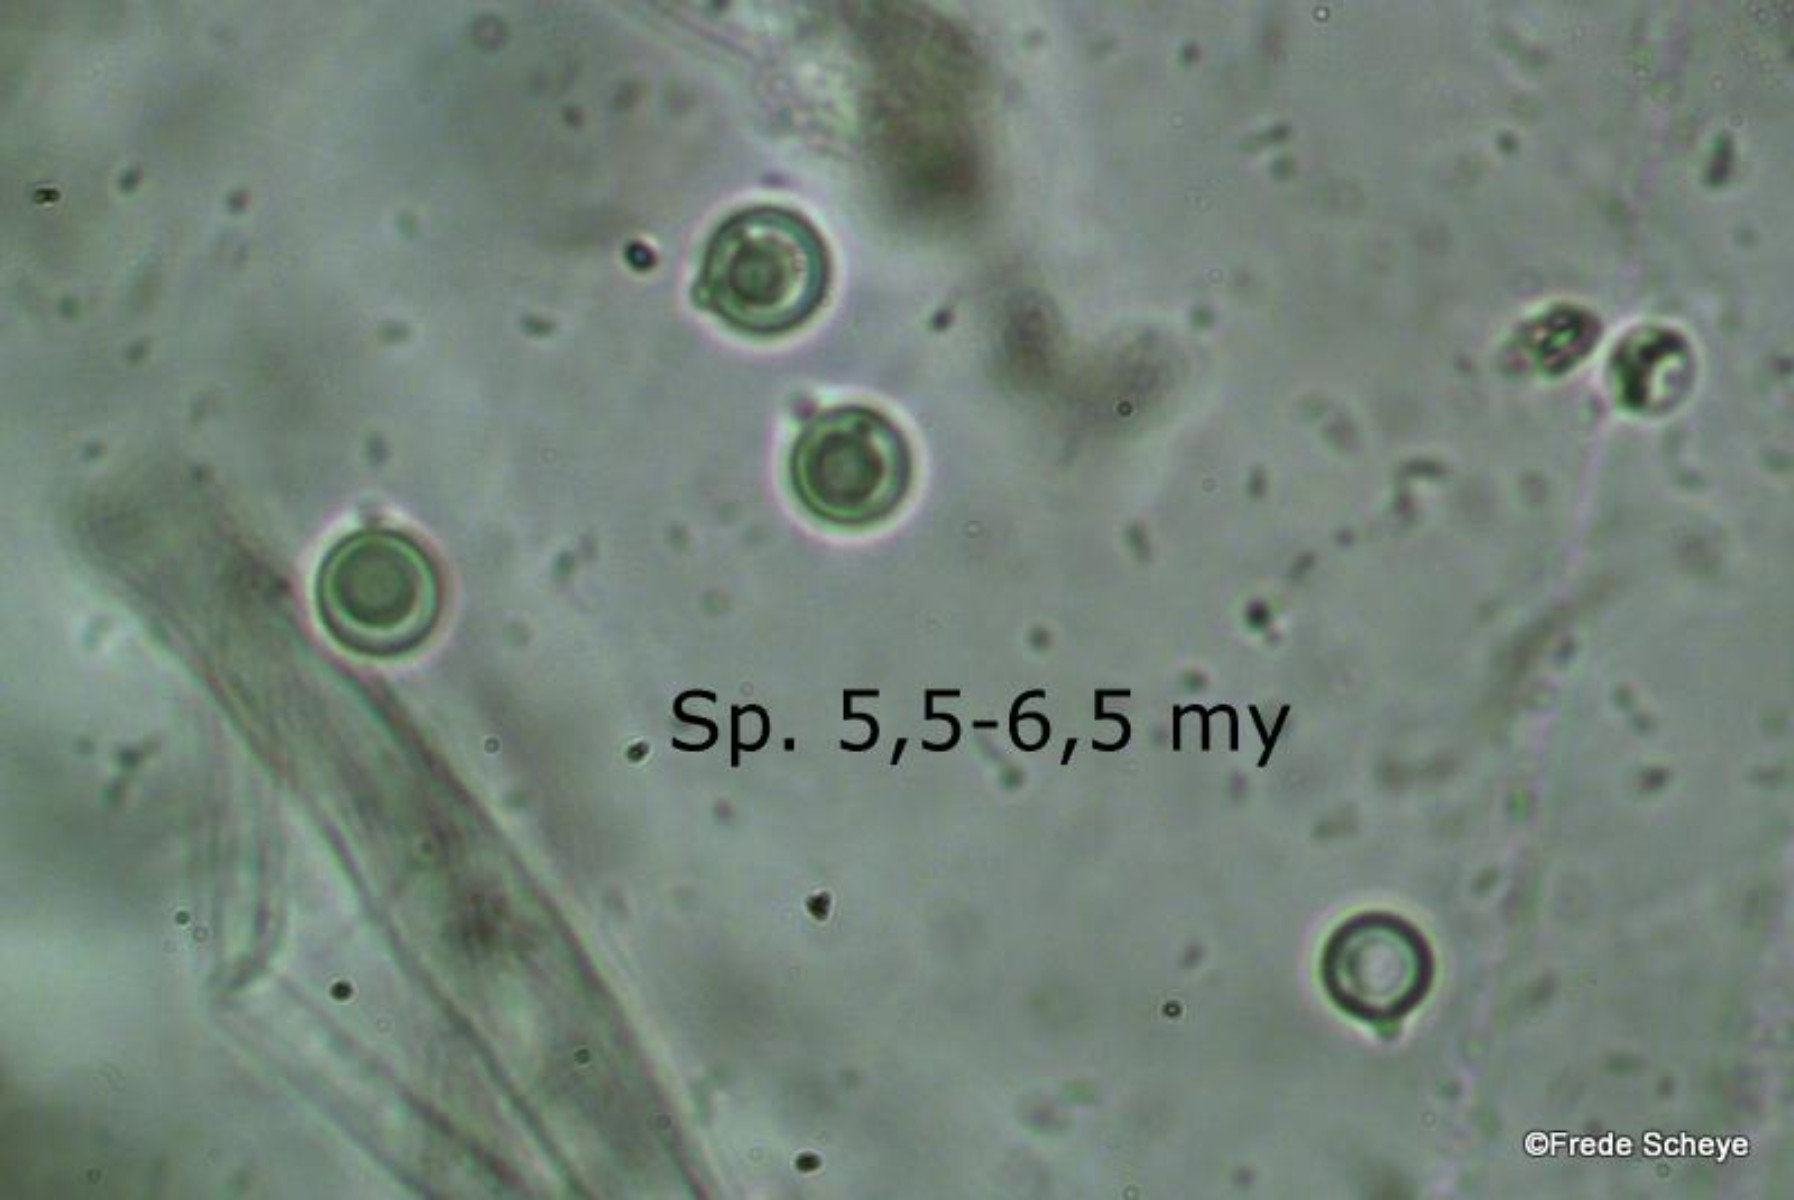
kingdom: Fungi
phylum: Basidiomycota
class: Agaricomycetes
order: Agaricales
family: Clavariaceae
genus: Clavulinopsis
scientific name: Clavulinopsis corniculata
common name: eng-køllesvamp
